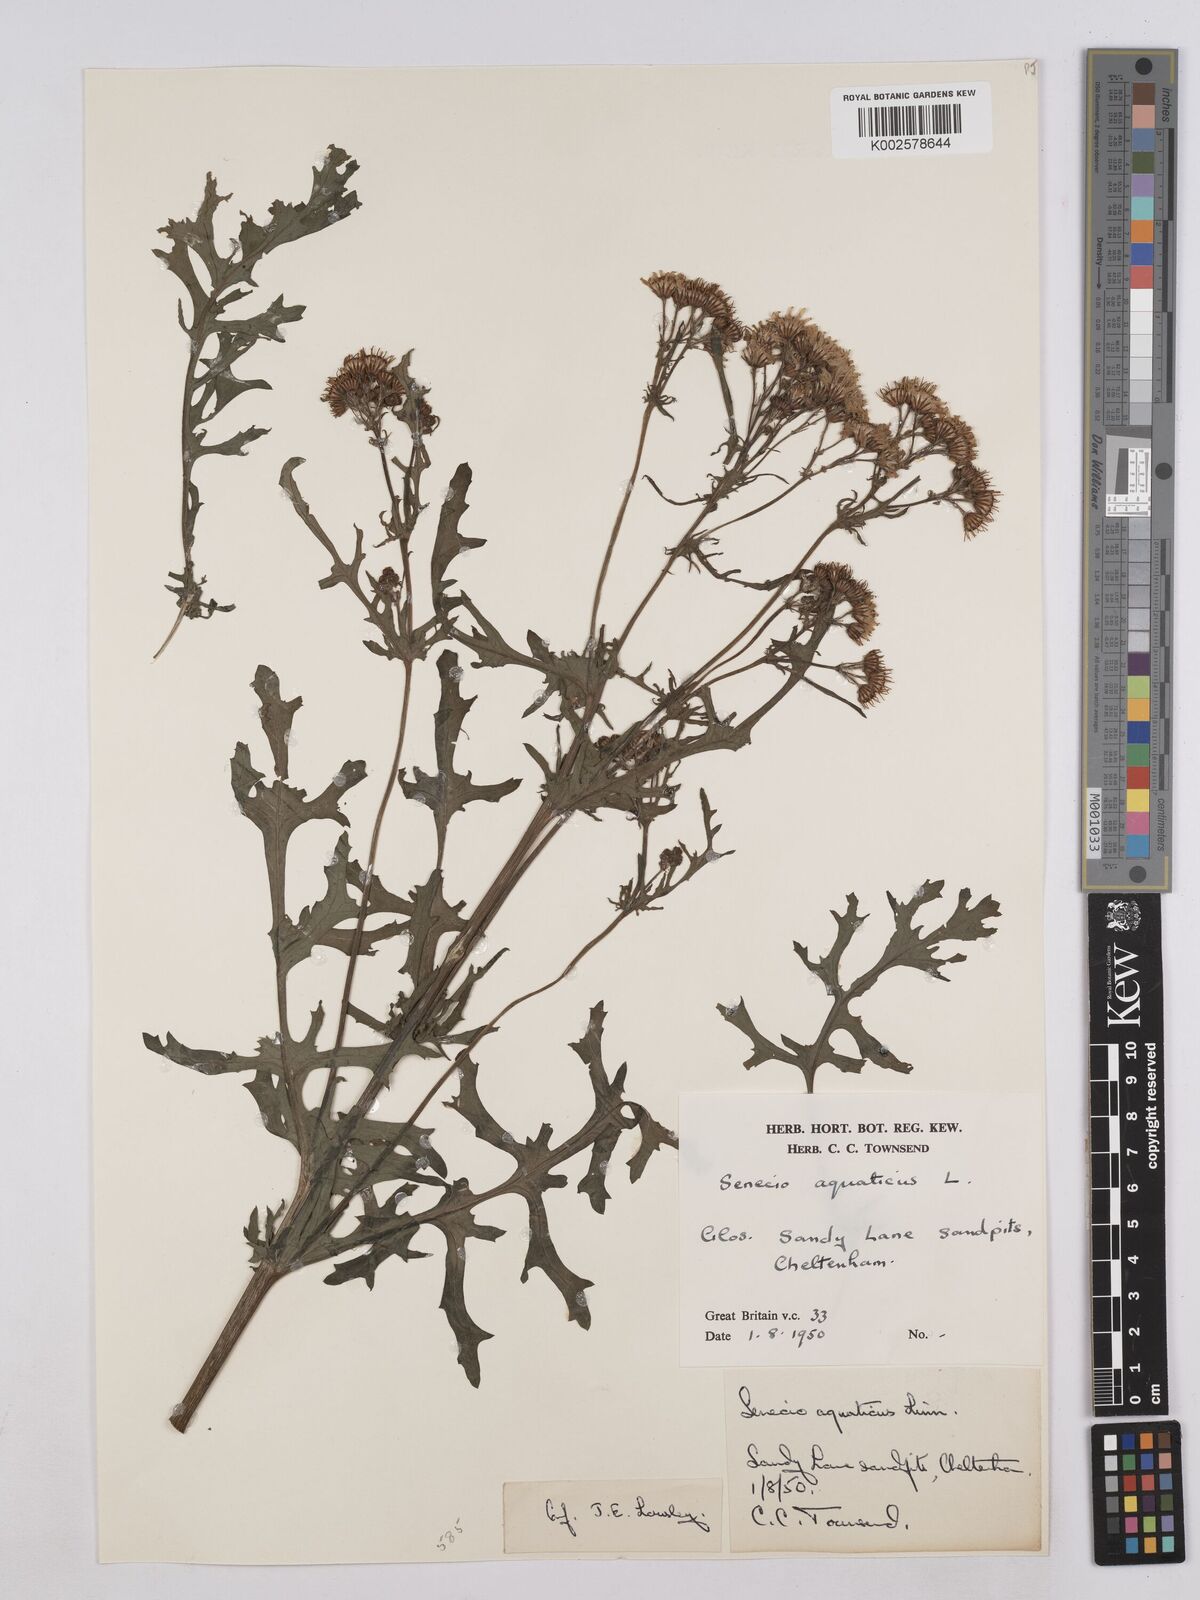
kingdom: Plantae
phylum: Tracheophyta
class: Magnoliopsida
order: Asterales
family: Asteraceae
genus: Jacobaea
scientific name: Jacobaea aquatica
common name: Water ragwort
